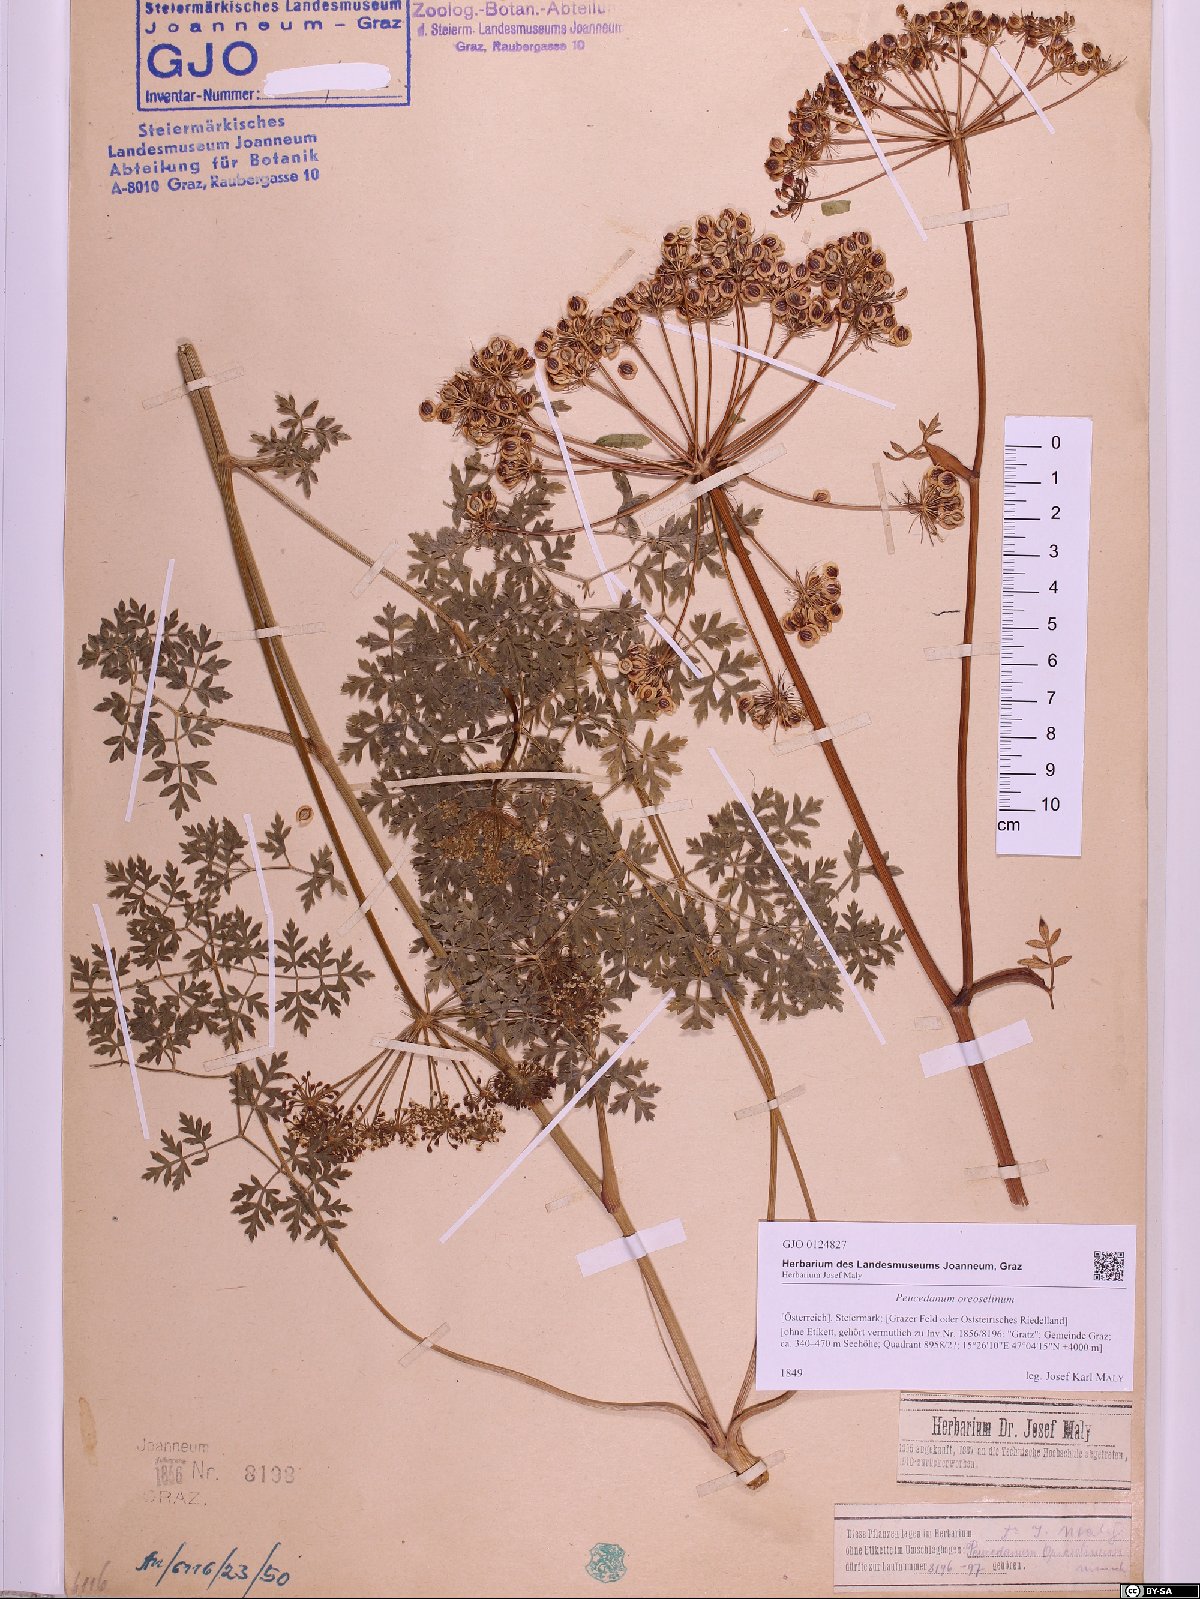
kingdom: Plantae
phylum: Tracheophyta
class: Magnoliopsida
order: Apiales
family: Apiaceae
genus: Oreoselinum
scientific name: Oreoselinum nigrum
